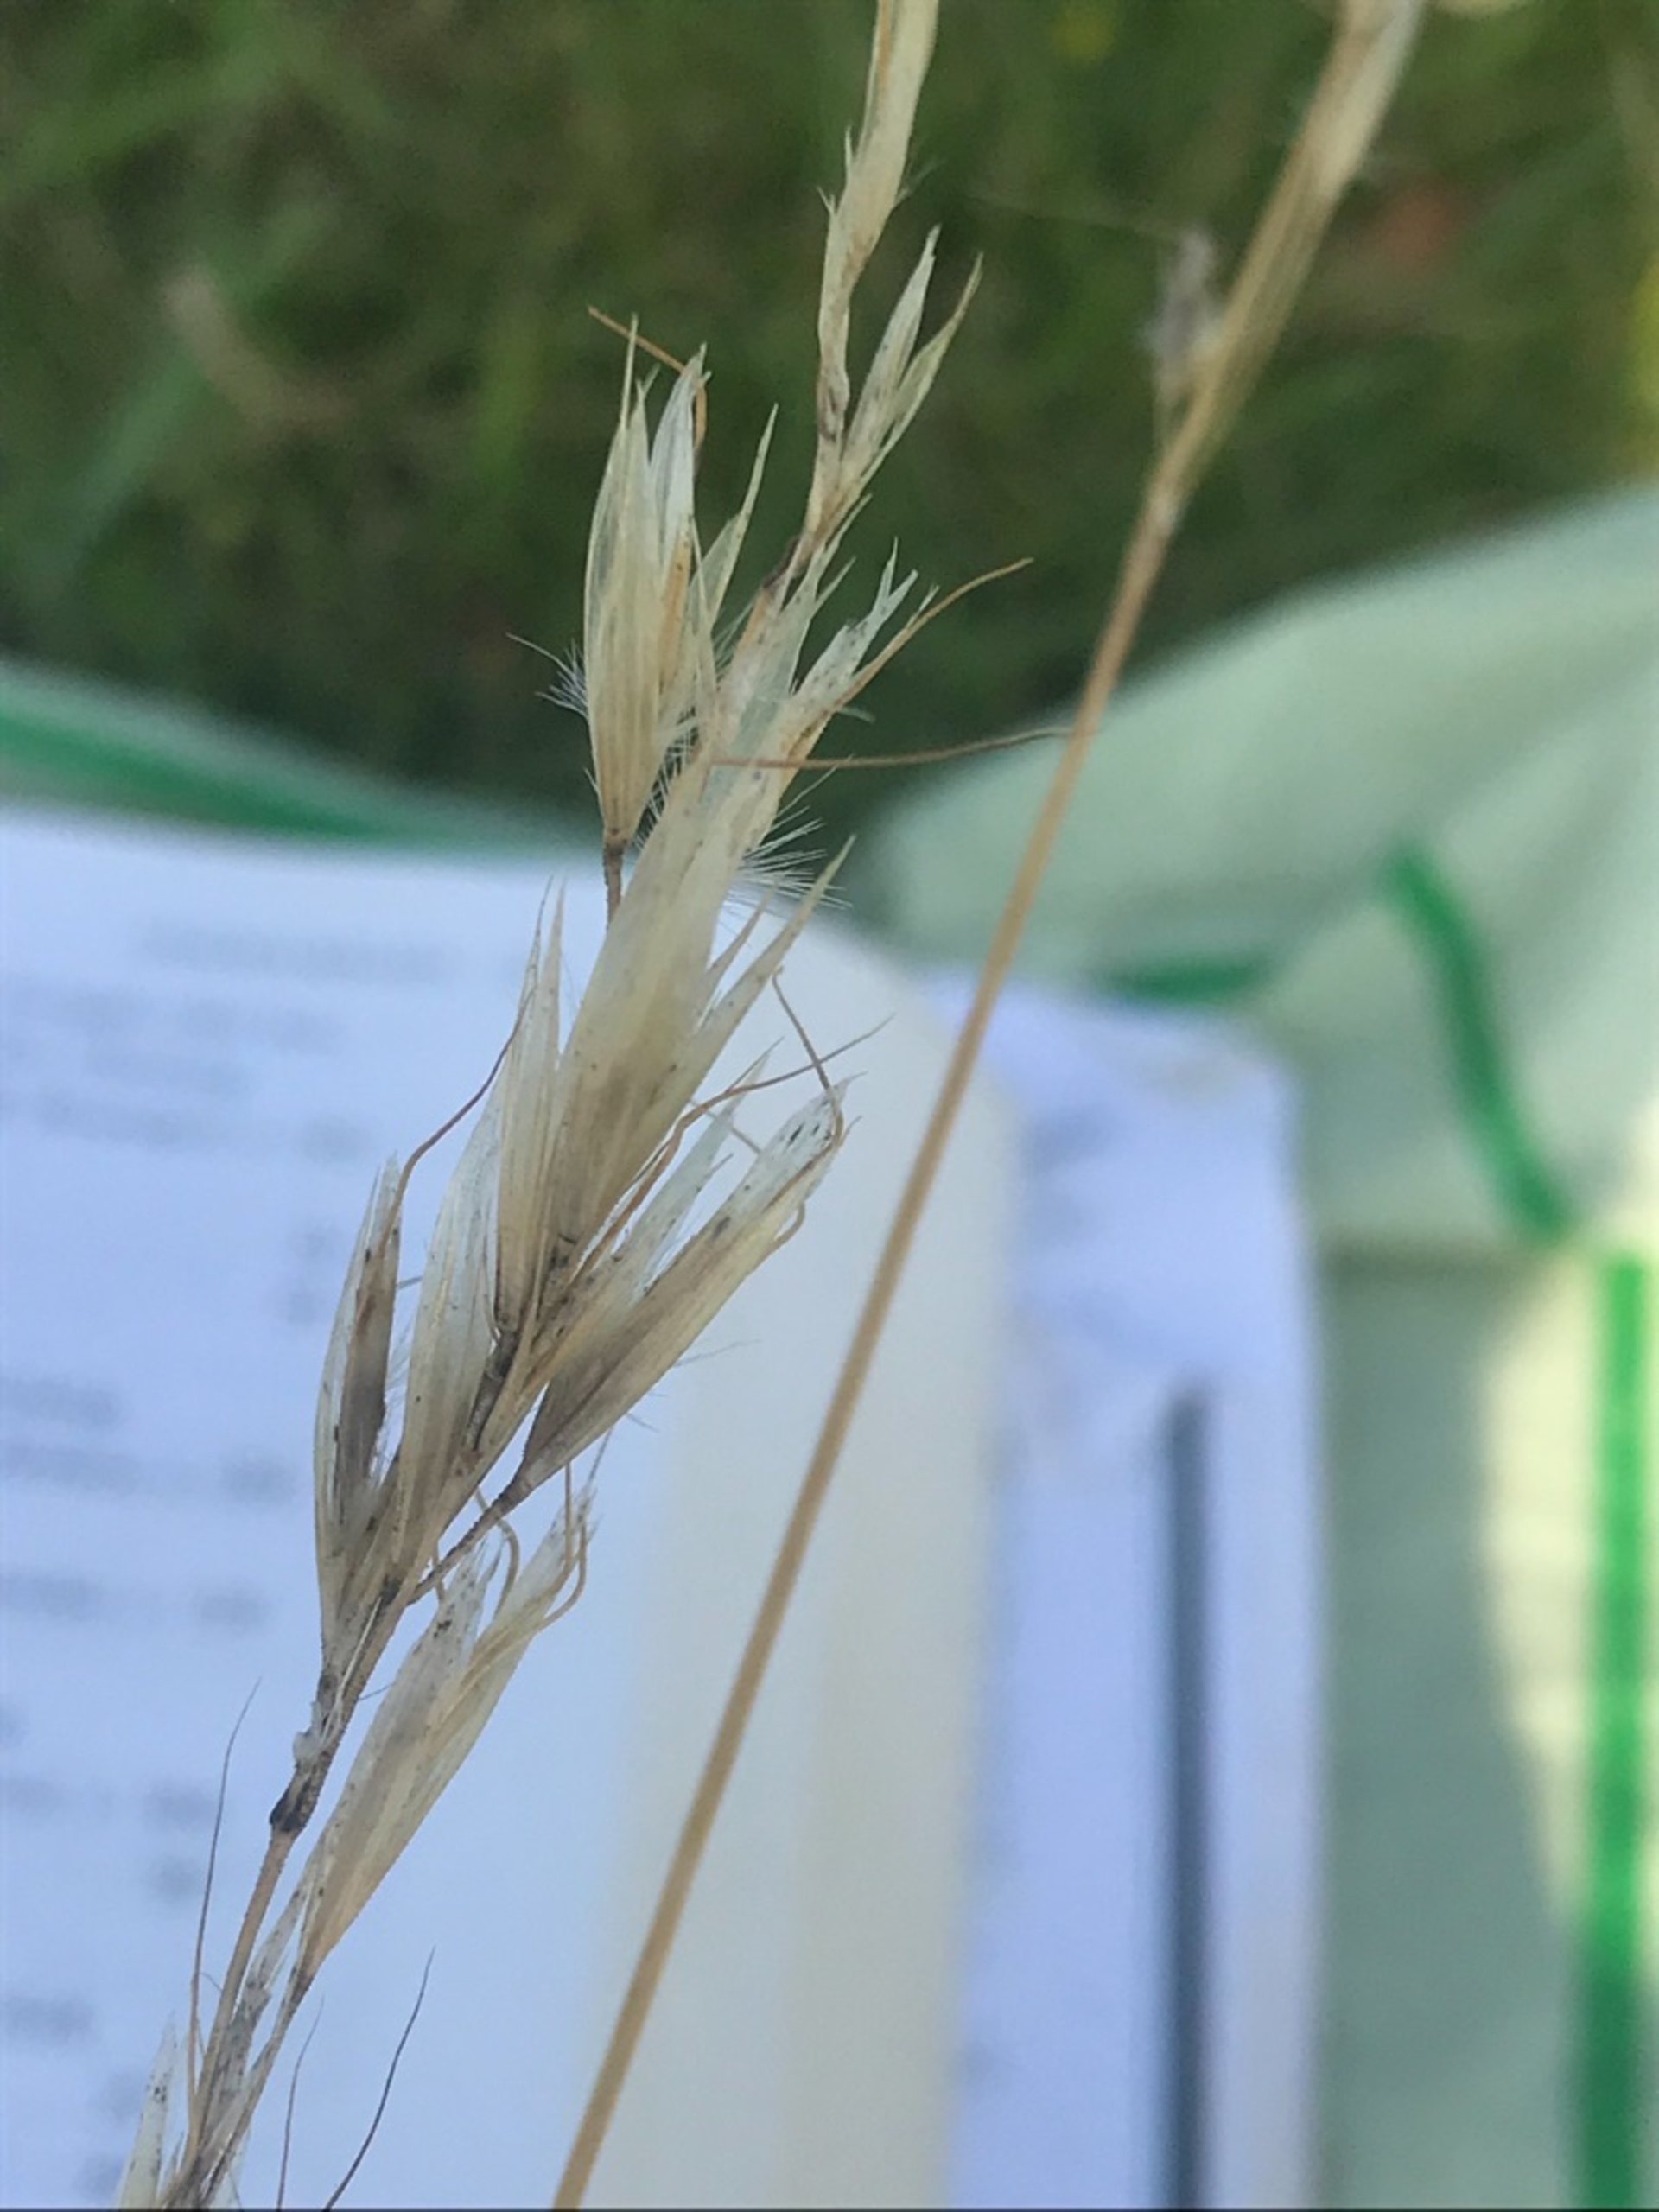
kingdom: Plantae
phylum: Tracheophyta
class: Liliopsida
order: Poales
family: Poaceae
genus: Avenula
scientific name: Avenula pubescens
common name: Dunet havre
